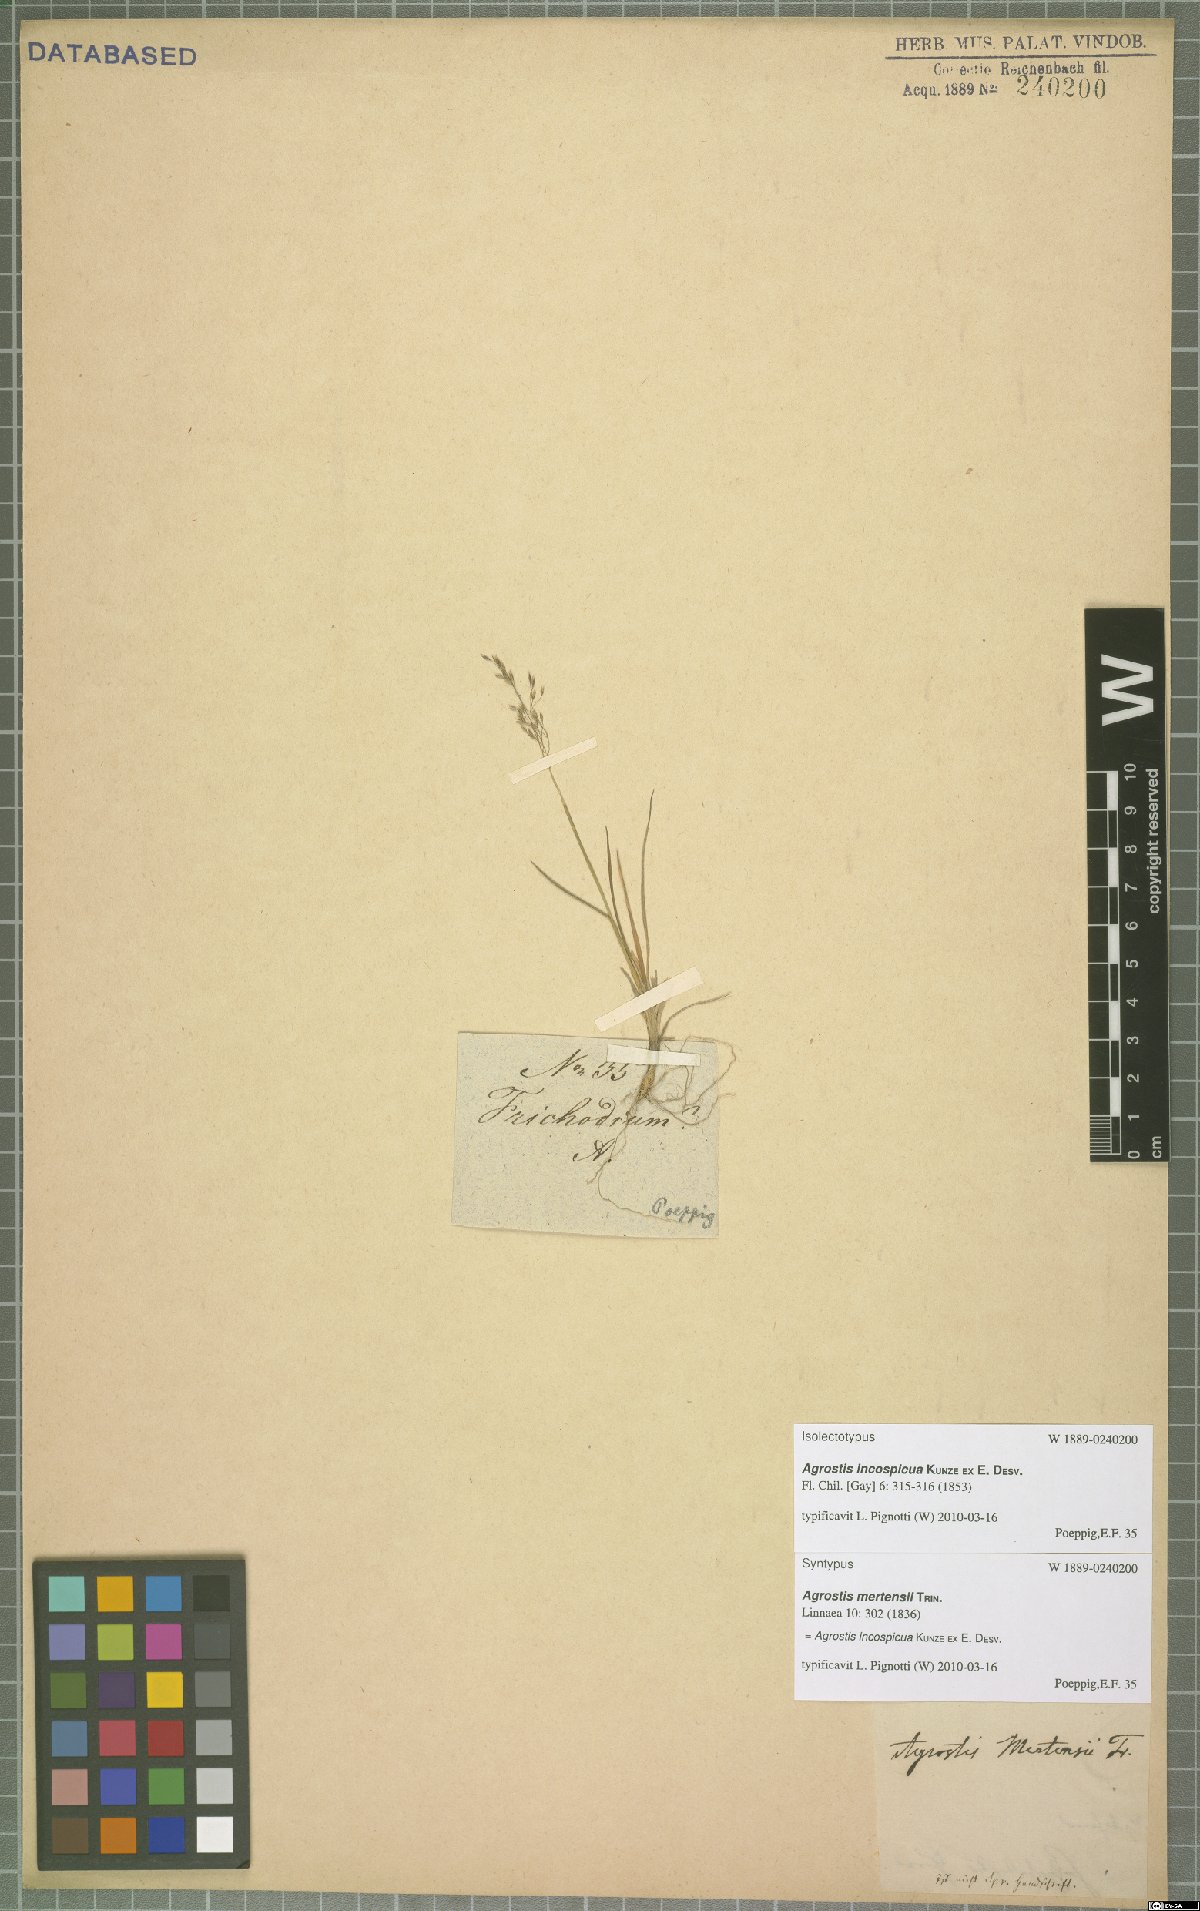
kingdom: Plantae
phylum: Tracheophyta
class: Liliopsida
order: Poales
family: Poaceae
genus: Agrostis
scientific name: Agrostis inconspicua
